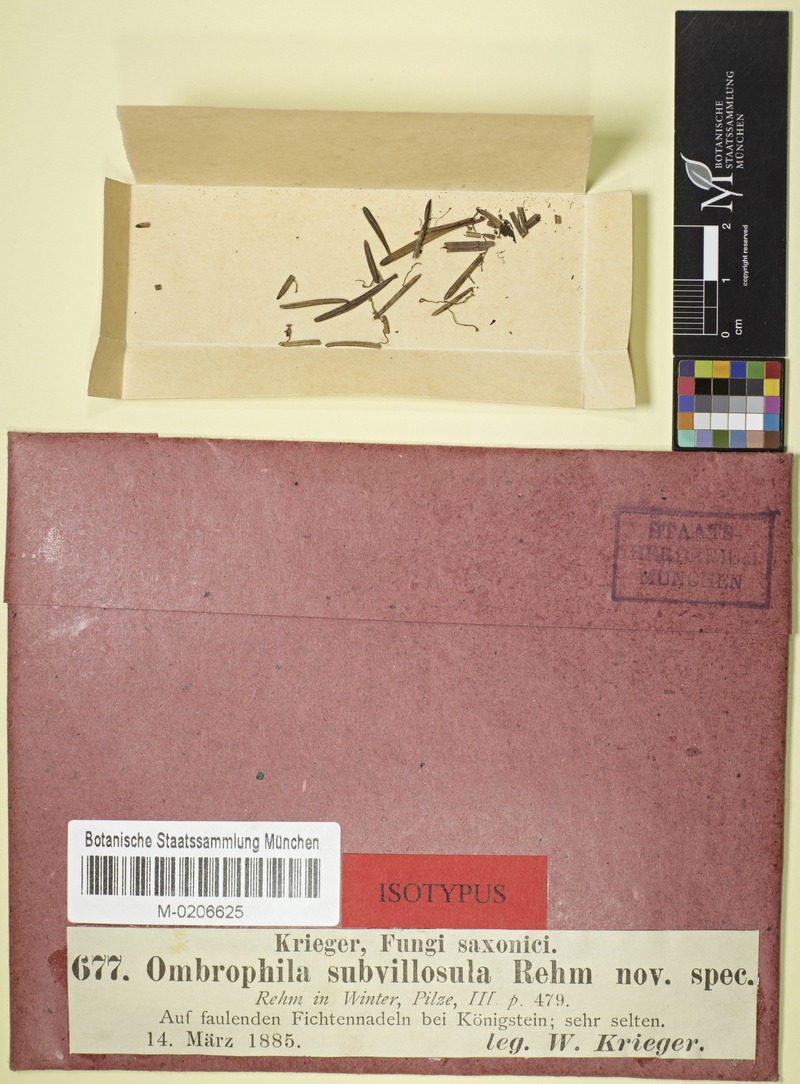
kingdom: Fungi
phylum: Ascomycota
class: Leotiomycetes
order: Helotiales
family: Hyaloscyphaceae
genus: Pubigera
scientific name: Pubigera subvillosula
